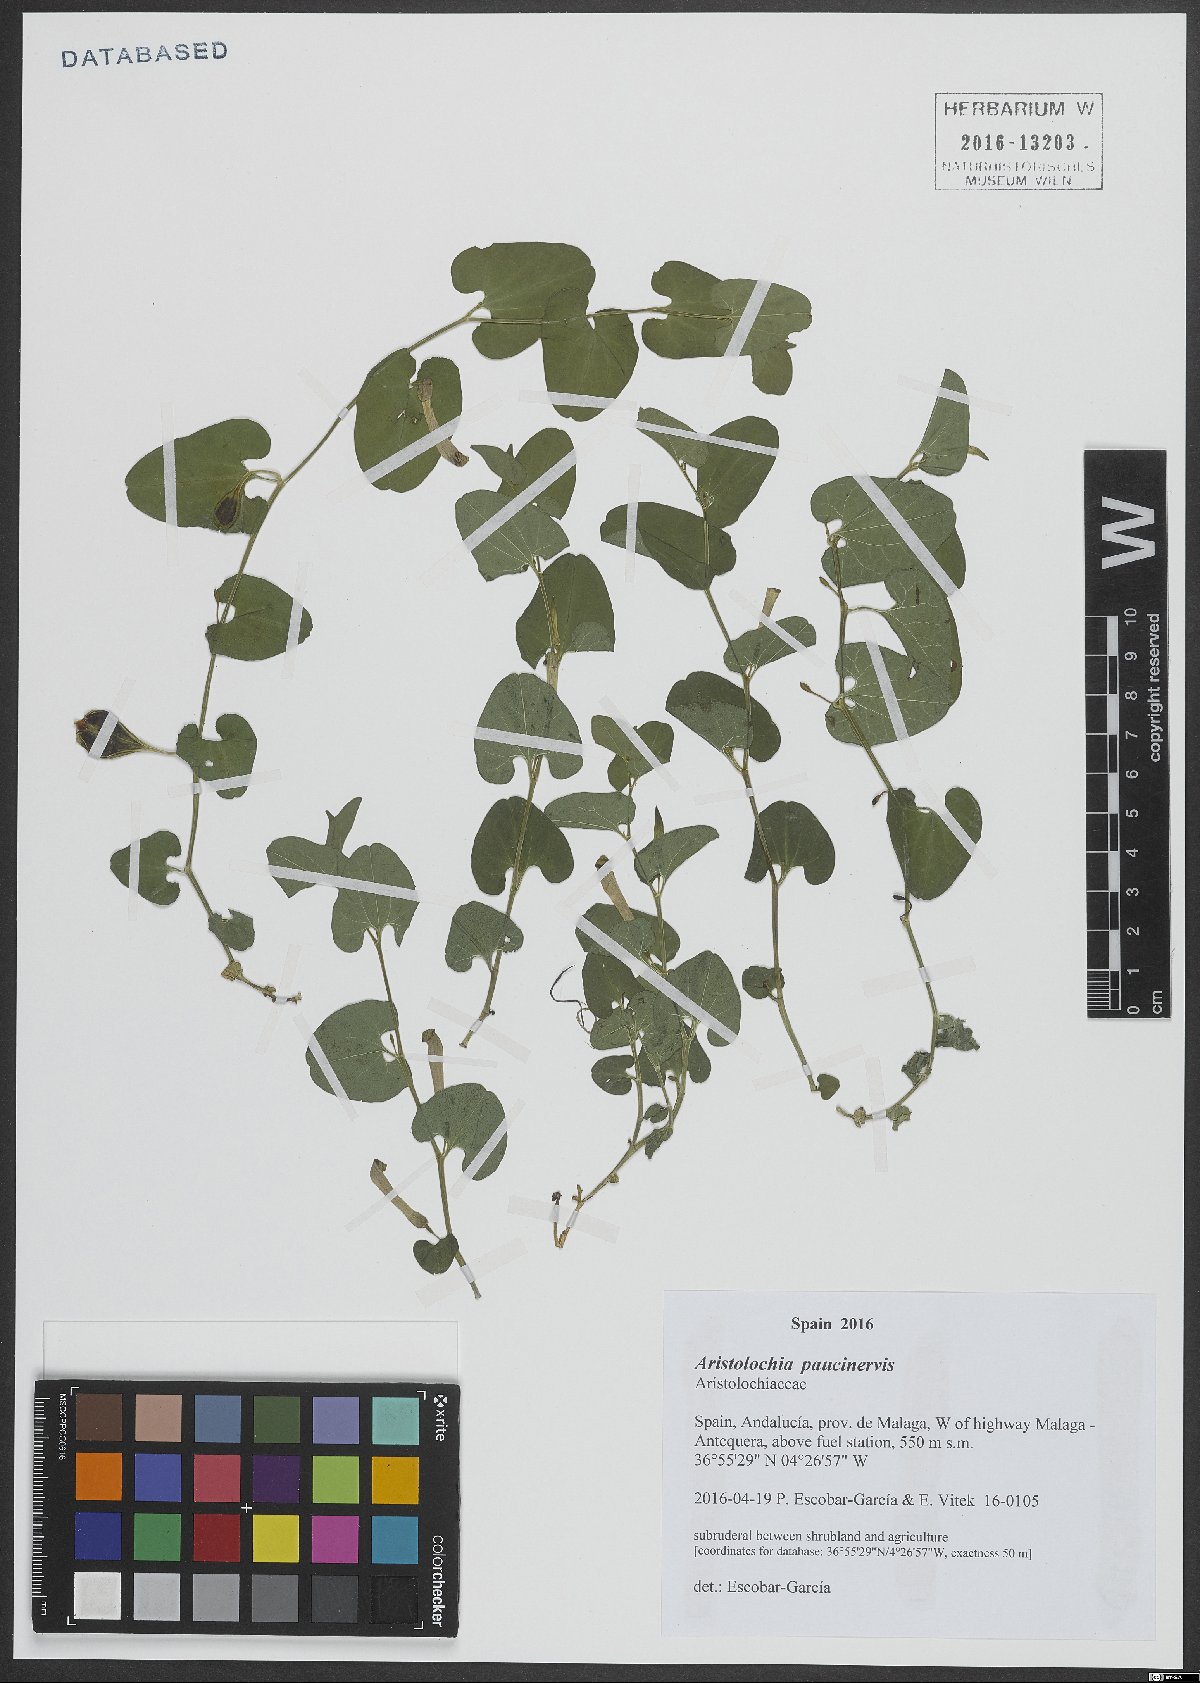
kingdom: Plantae
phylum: Tracheophyta
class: Magnoliopsida
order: Piperales
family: Aristolochiaceae
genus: Aristolochia
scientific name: Aristolochia paucinervis
